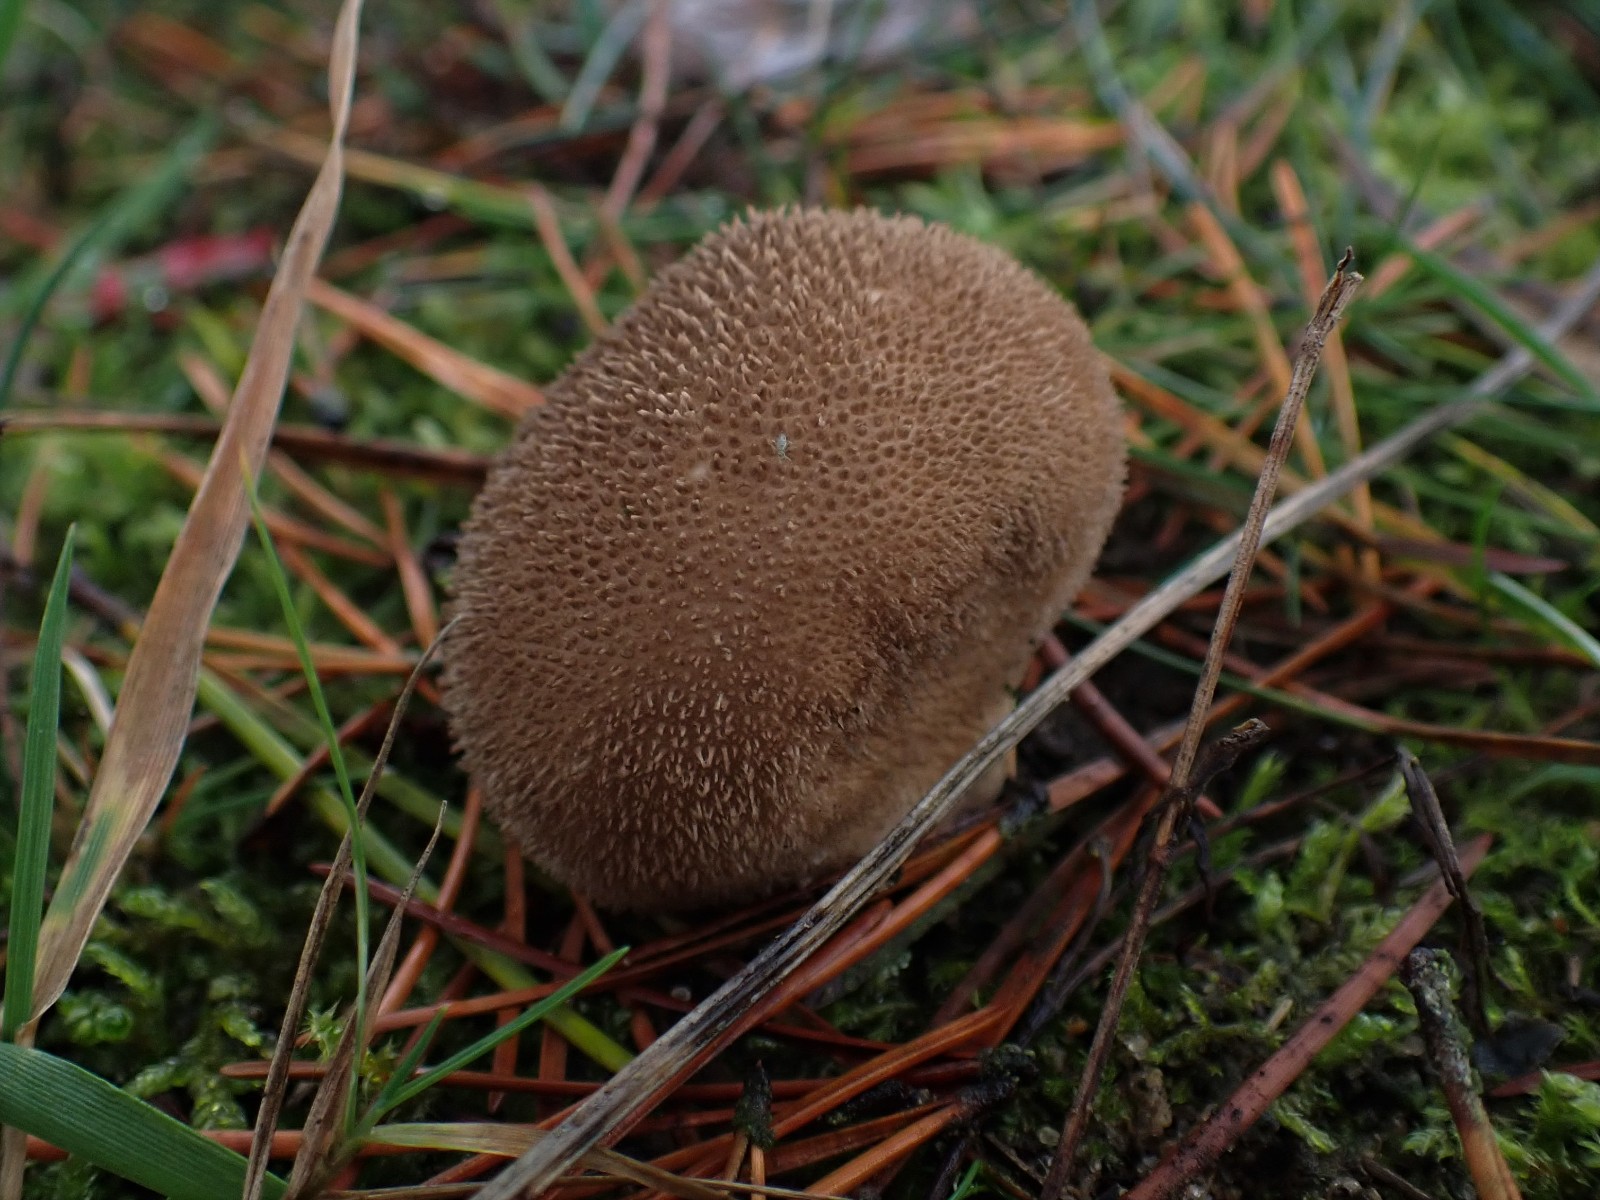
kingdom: Fungi
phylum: Basidiomycota
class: Agaricomycetes
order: Agaricales
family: Lycoperdaceae
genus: Lycoperdon
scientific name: Lycoperdon nigrescens
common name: sortagtig støvbold
